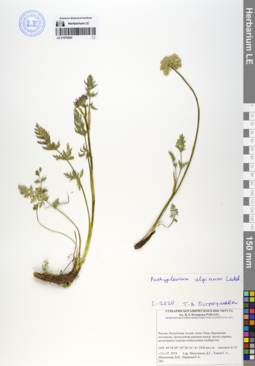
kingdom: Plantae
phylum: Tracheophyta
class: Magnoliopsida
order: Apiales
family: Apiaceae
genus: Pachypleurum
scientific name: Pachypleurum mutellinoides
